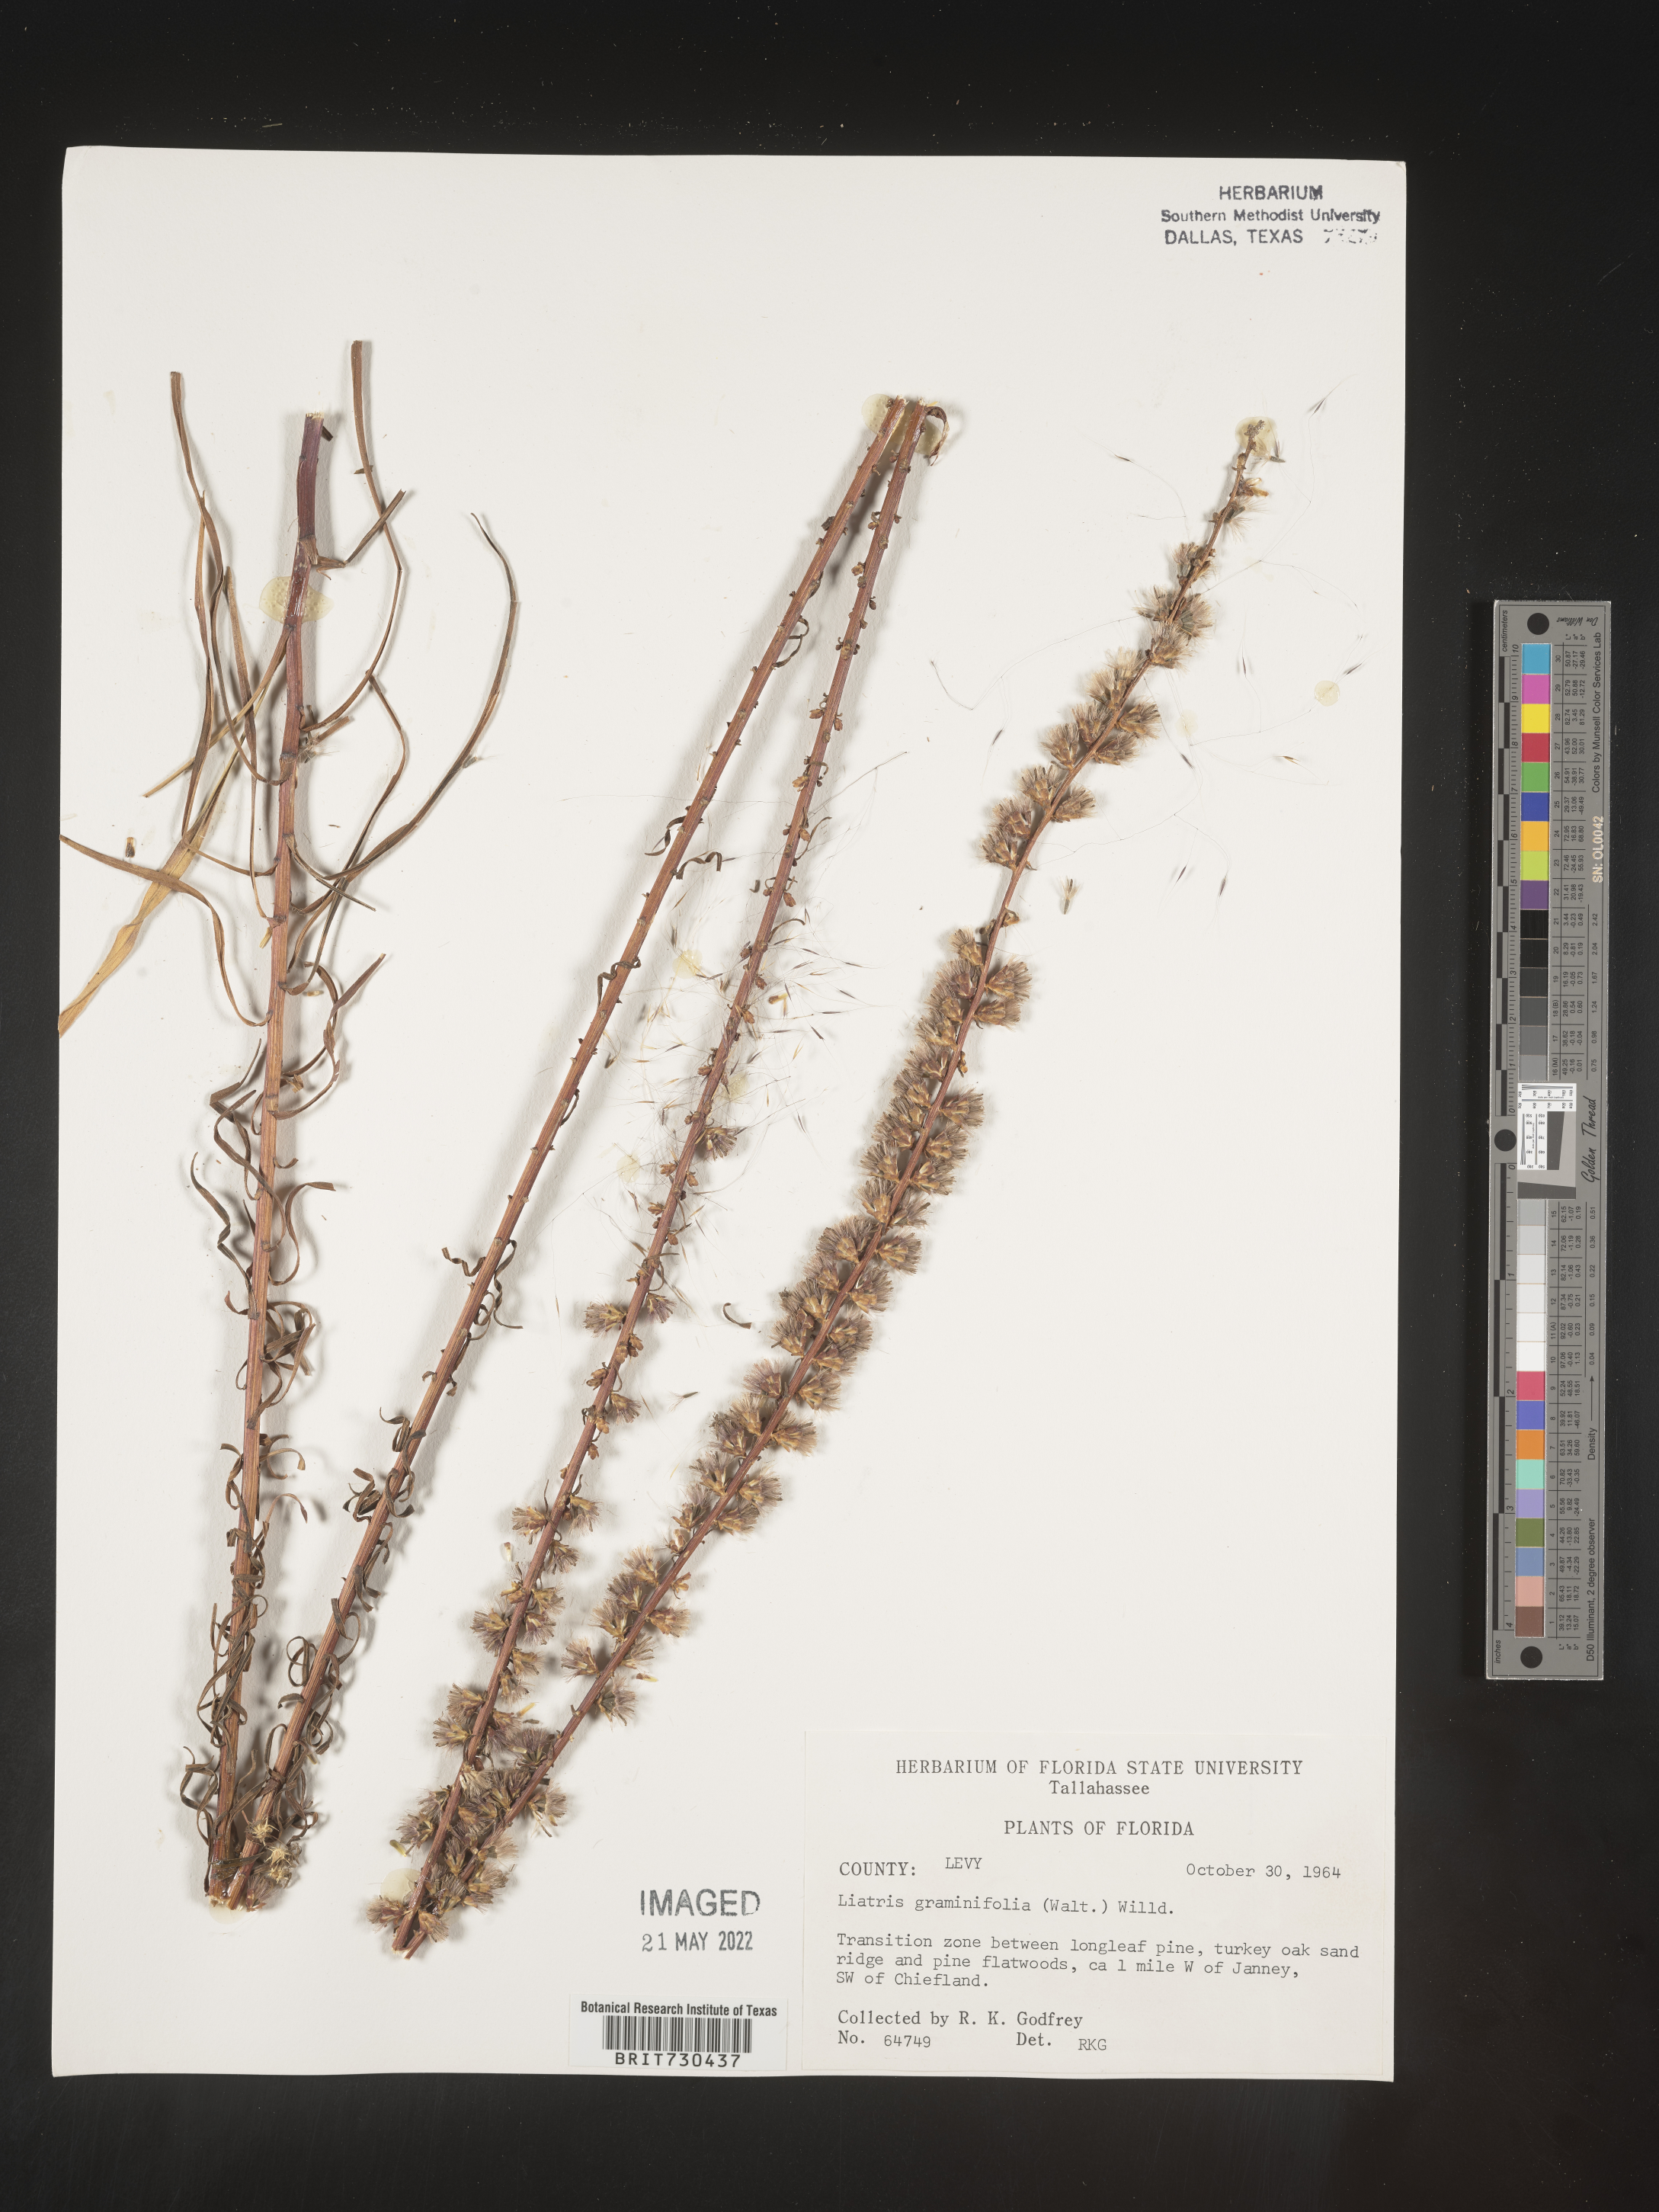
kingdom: Plantae
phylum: Tracheophyta
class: Magnoliopsida
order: Asterales
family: Asteraceae
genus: Liatris
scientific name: Liatris elegantula
